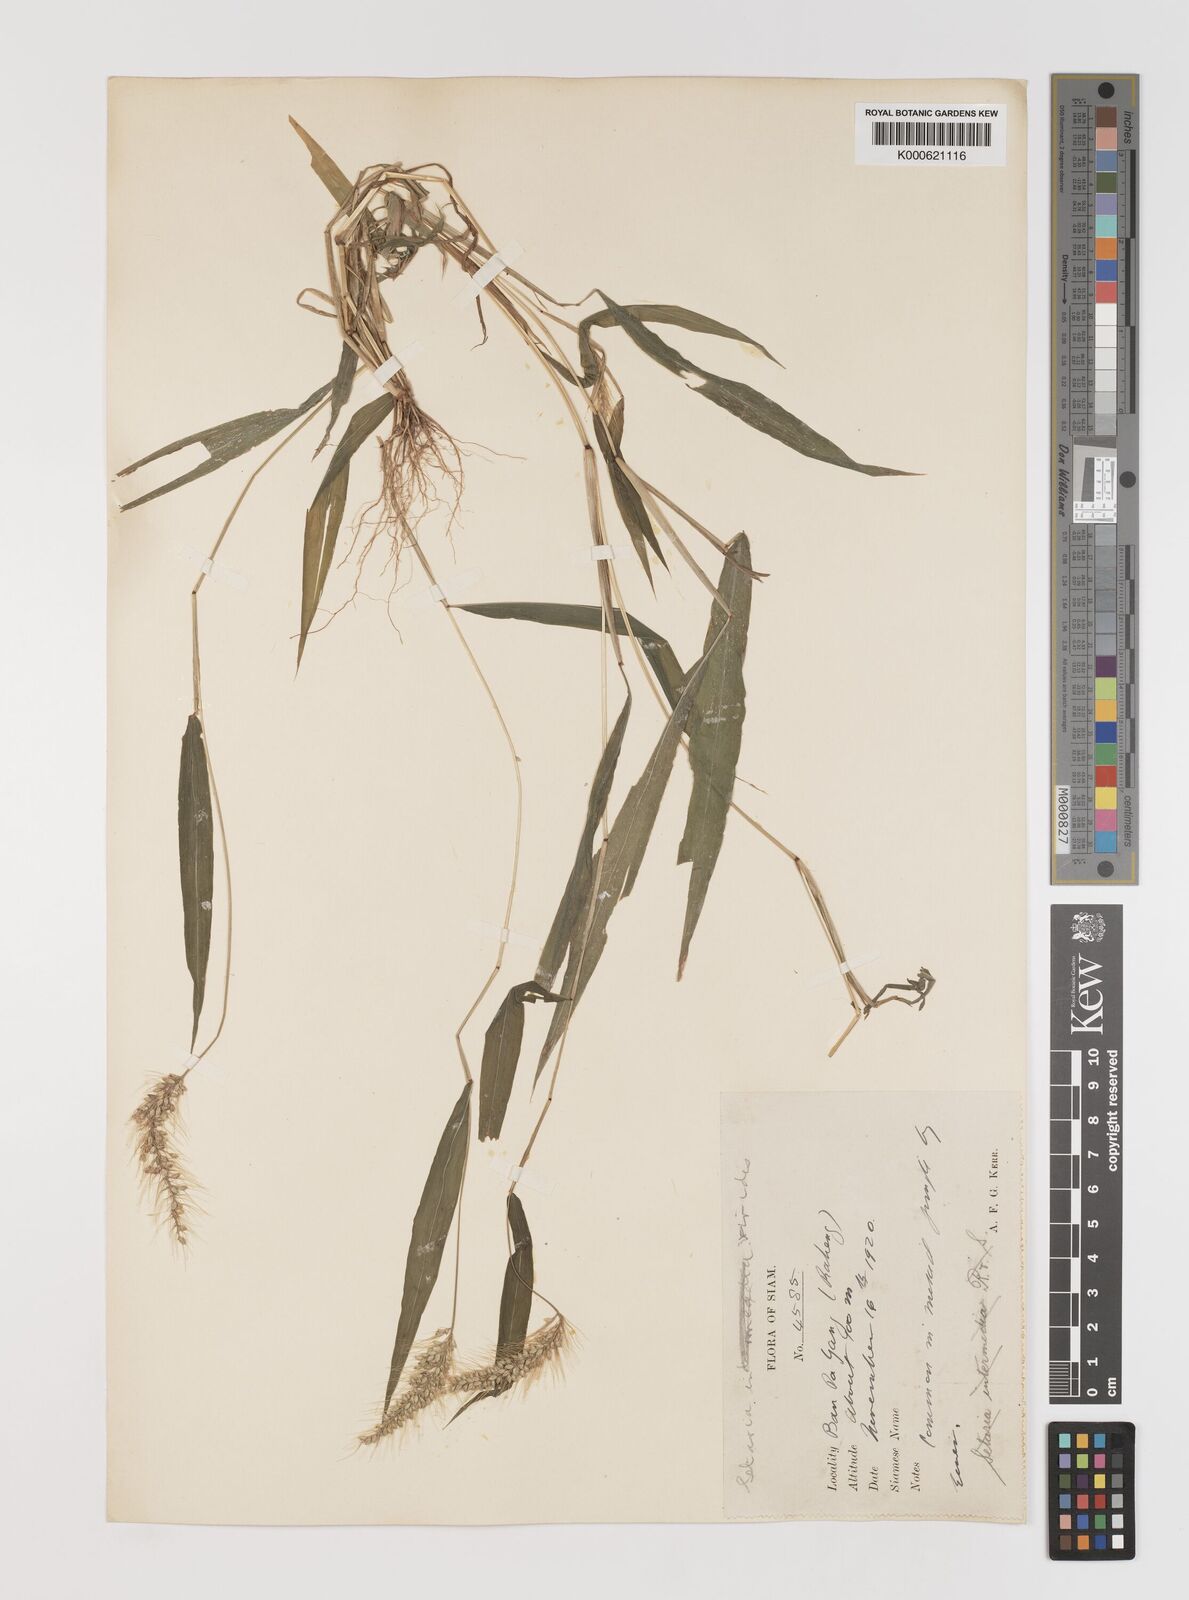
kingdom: Plantae
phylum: Tracheophyta
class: Liliopsida
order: Poales
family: Poaceae
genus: Setaria
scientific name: Setaria viridis
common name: Green bristlegrass
